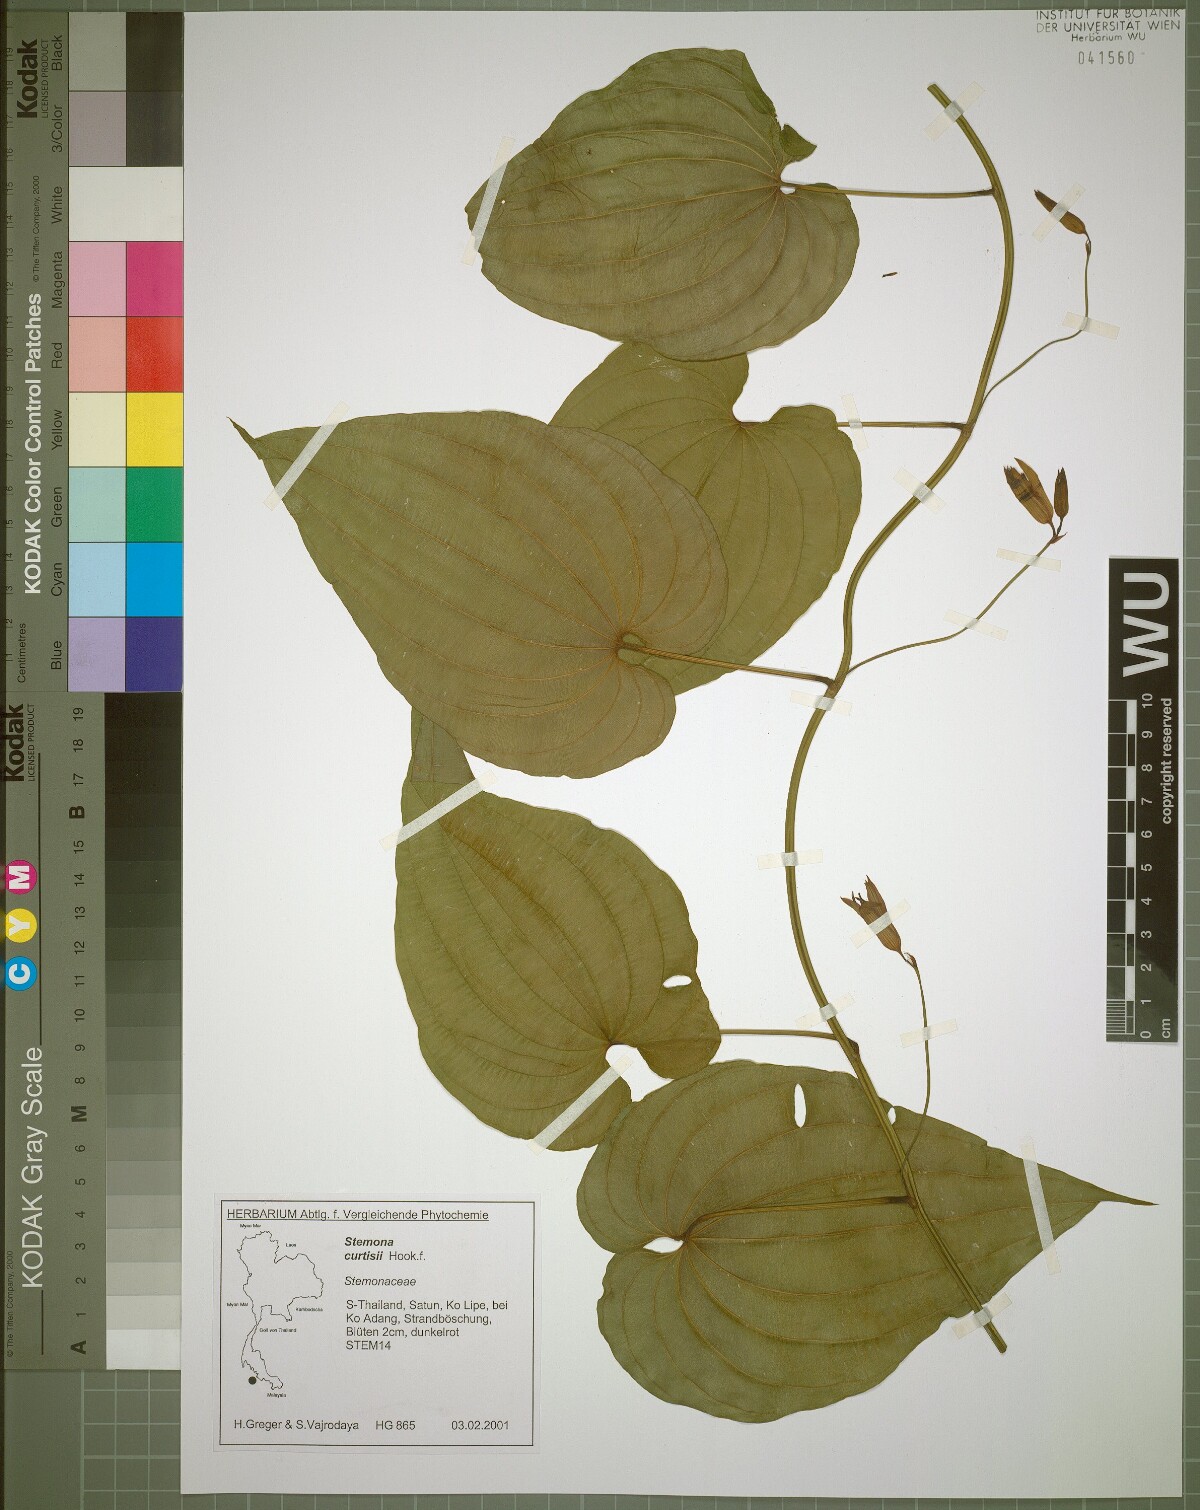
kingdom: Plantae
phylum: Tracheophyta
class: Liliopsida
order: Pandanales
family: Stemonaceae
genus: Stemona
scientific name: Stemona curtisii
